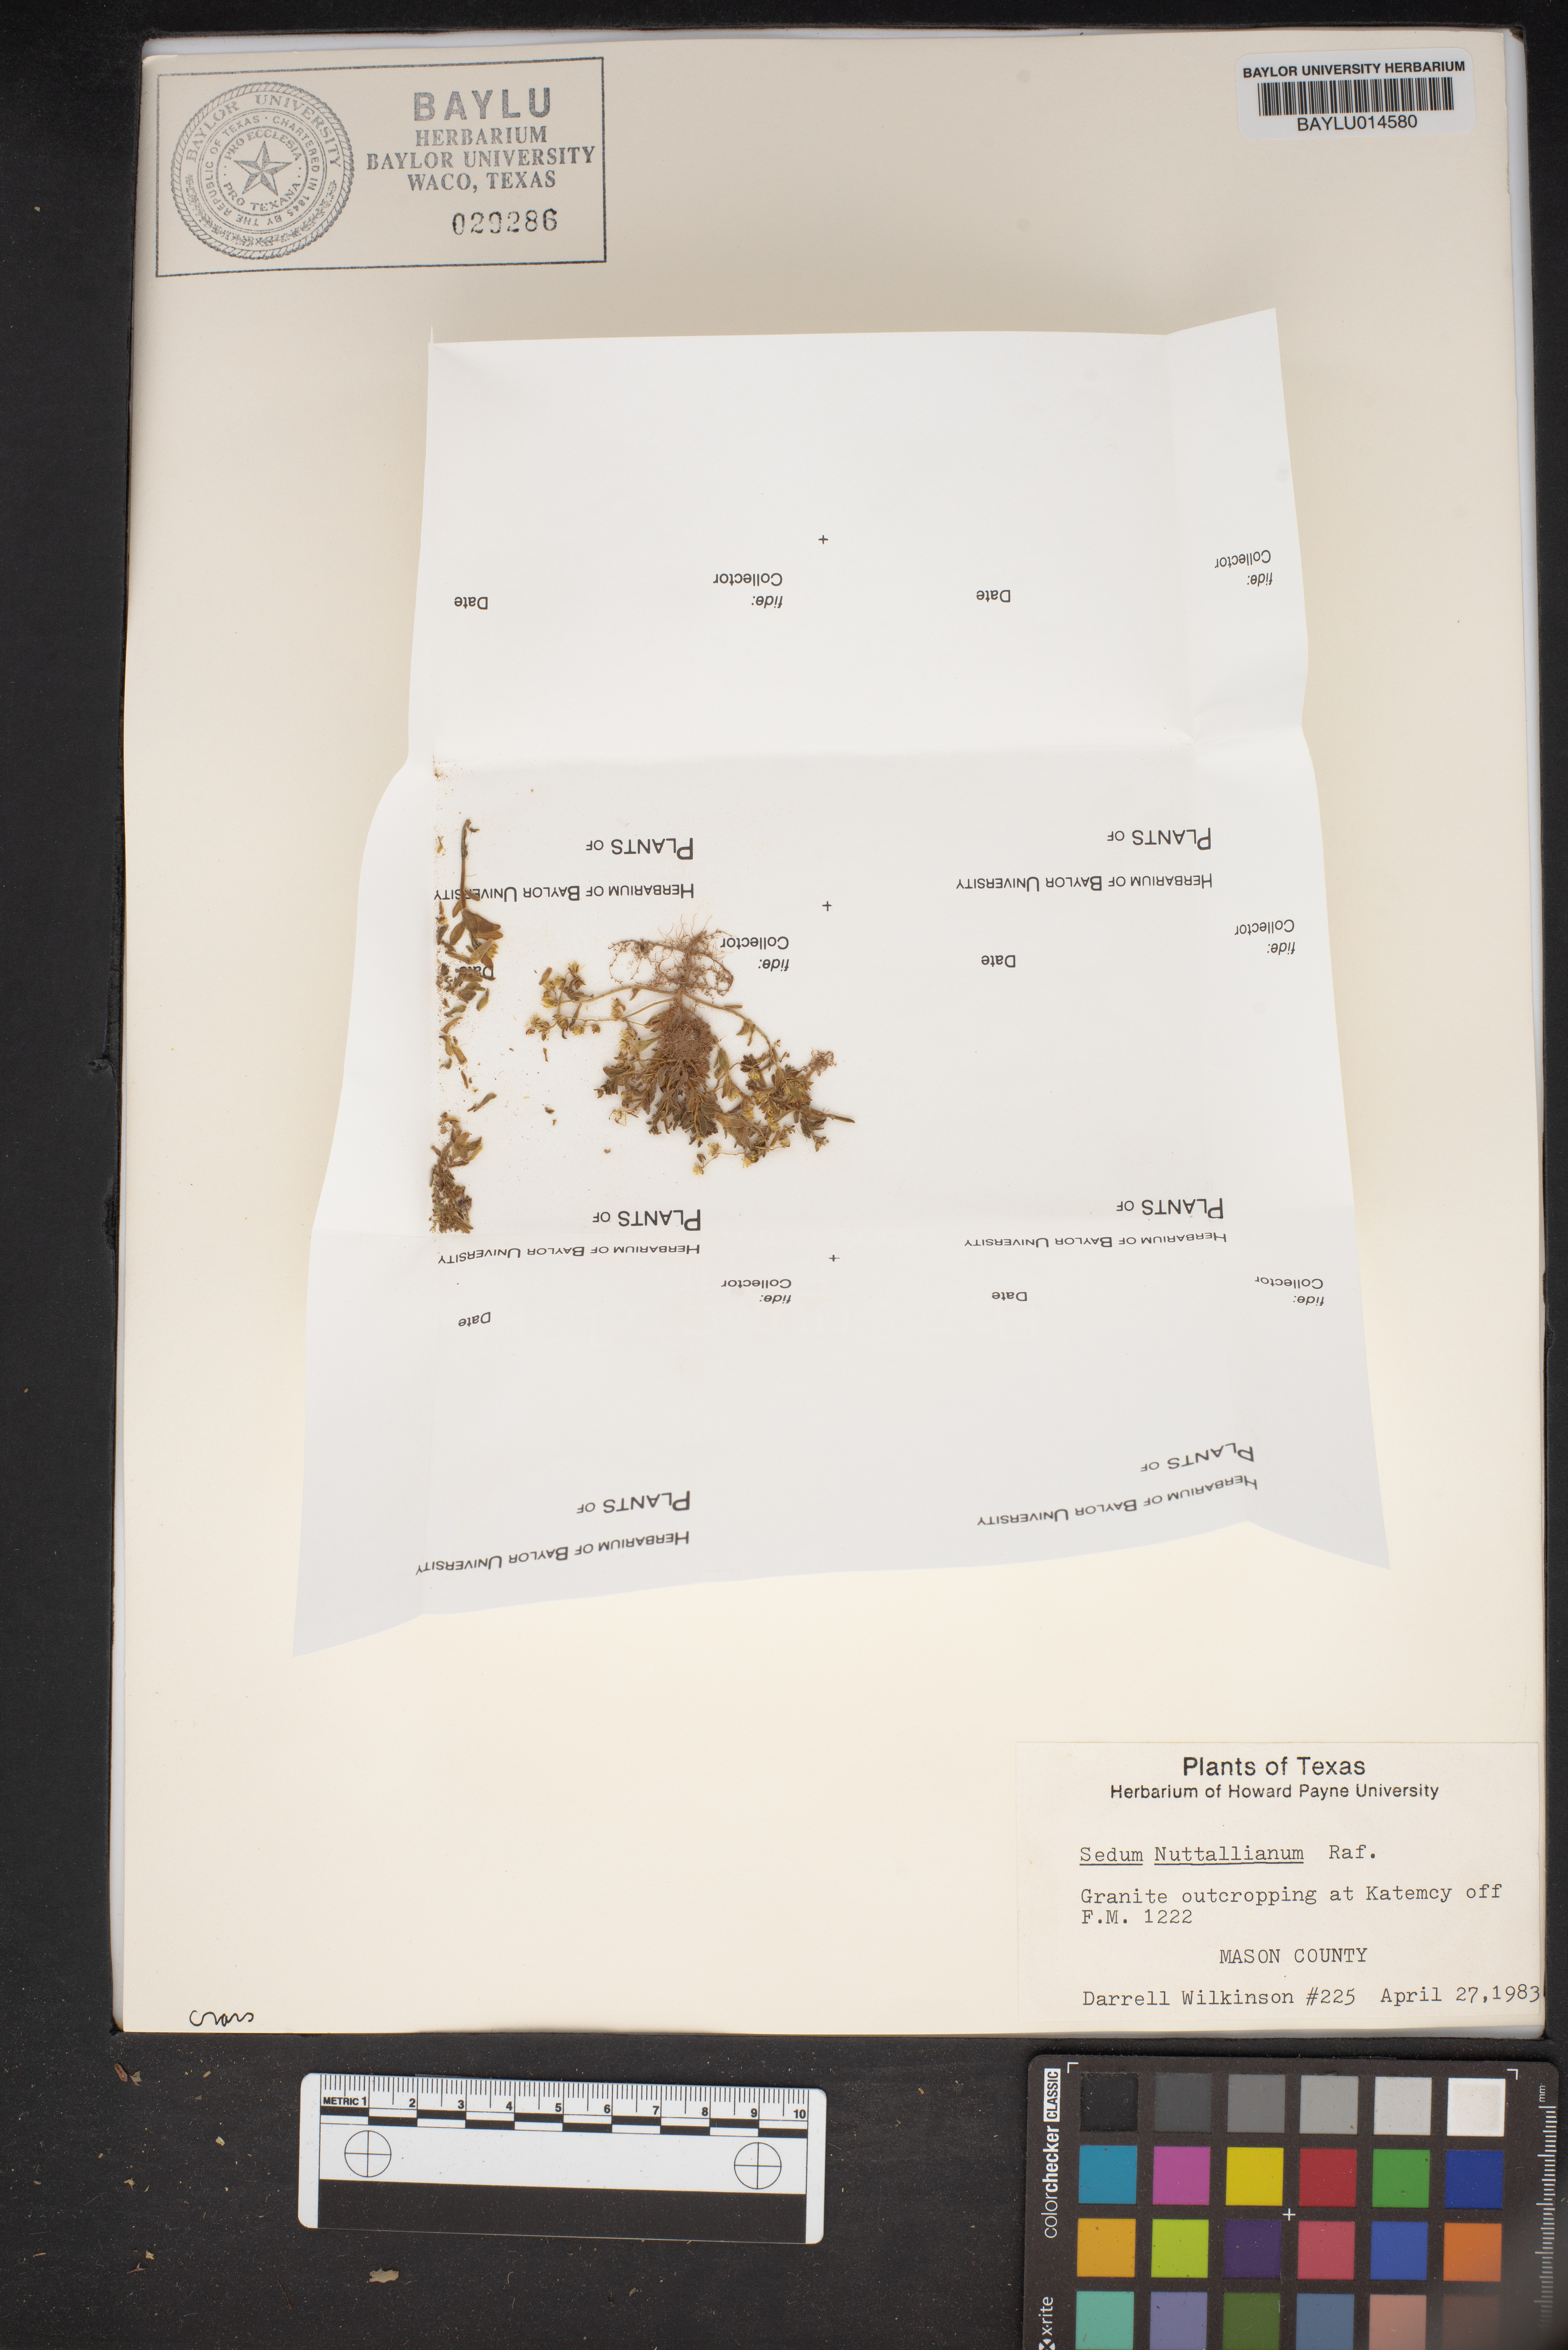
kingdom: Plantae
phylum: Tracheophyta
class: Magnoliopsida
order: Saxifragales
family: Crassulaceae
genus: Sedum
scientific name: Sedum nuttallii
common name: Yellow stonecrop
